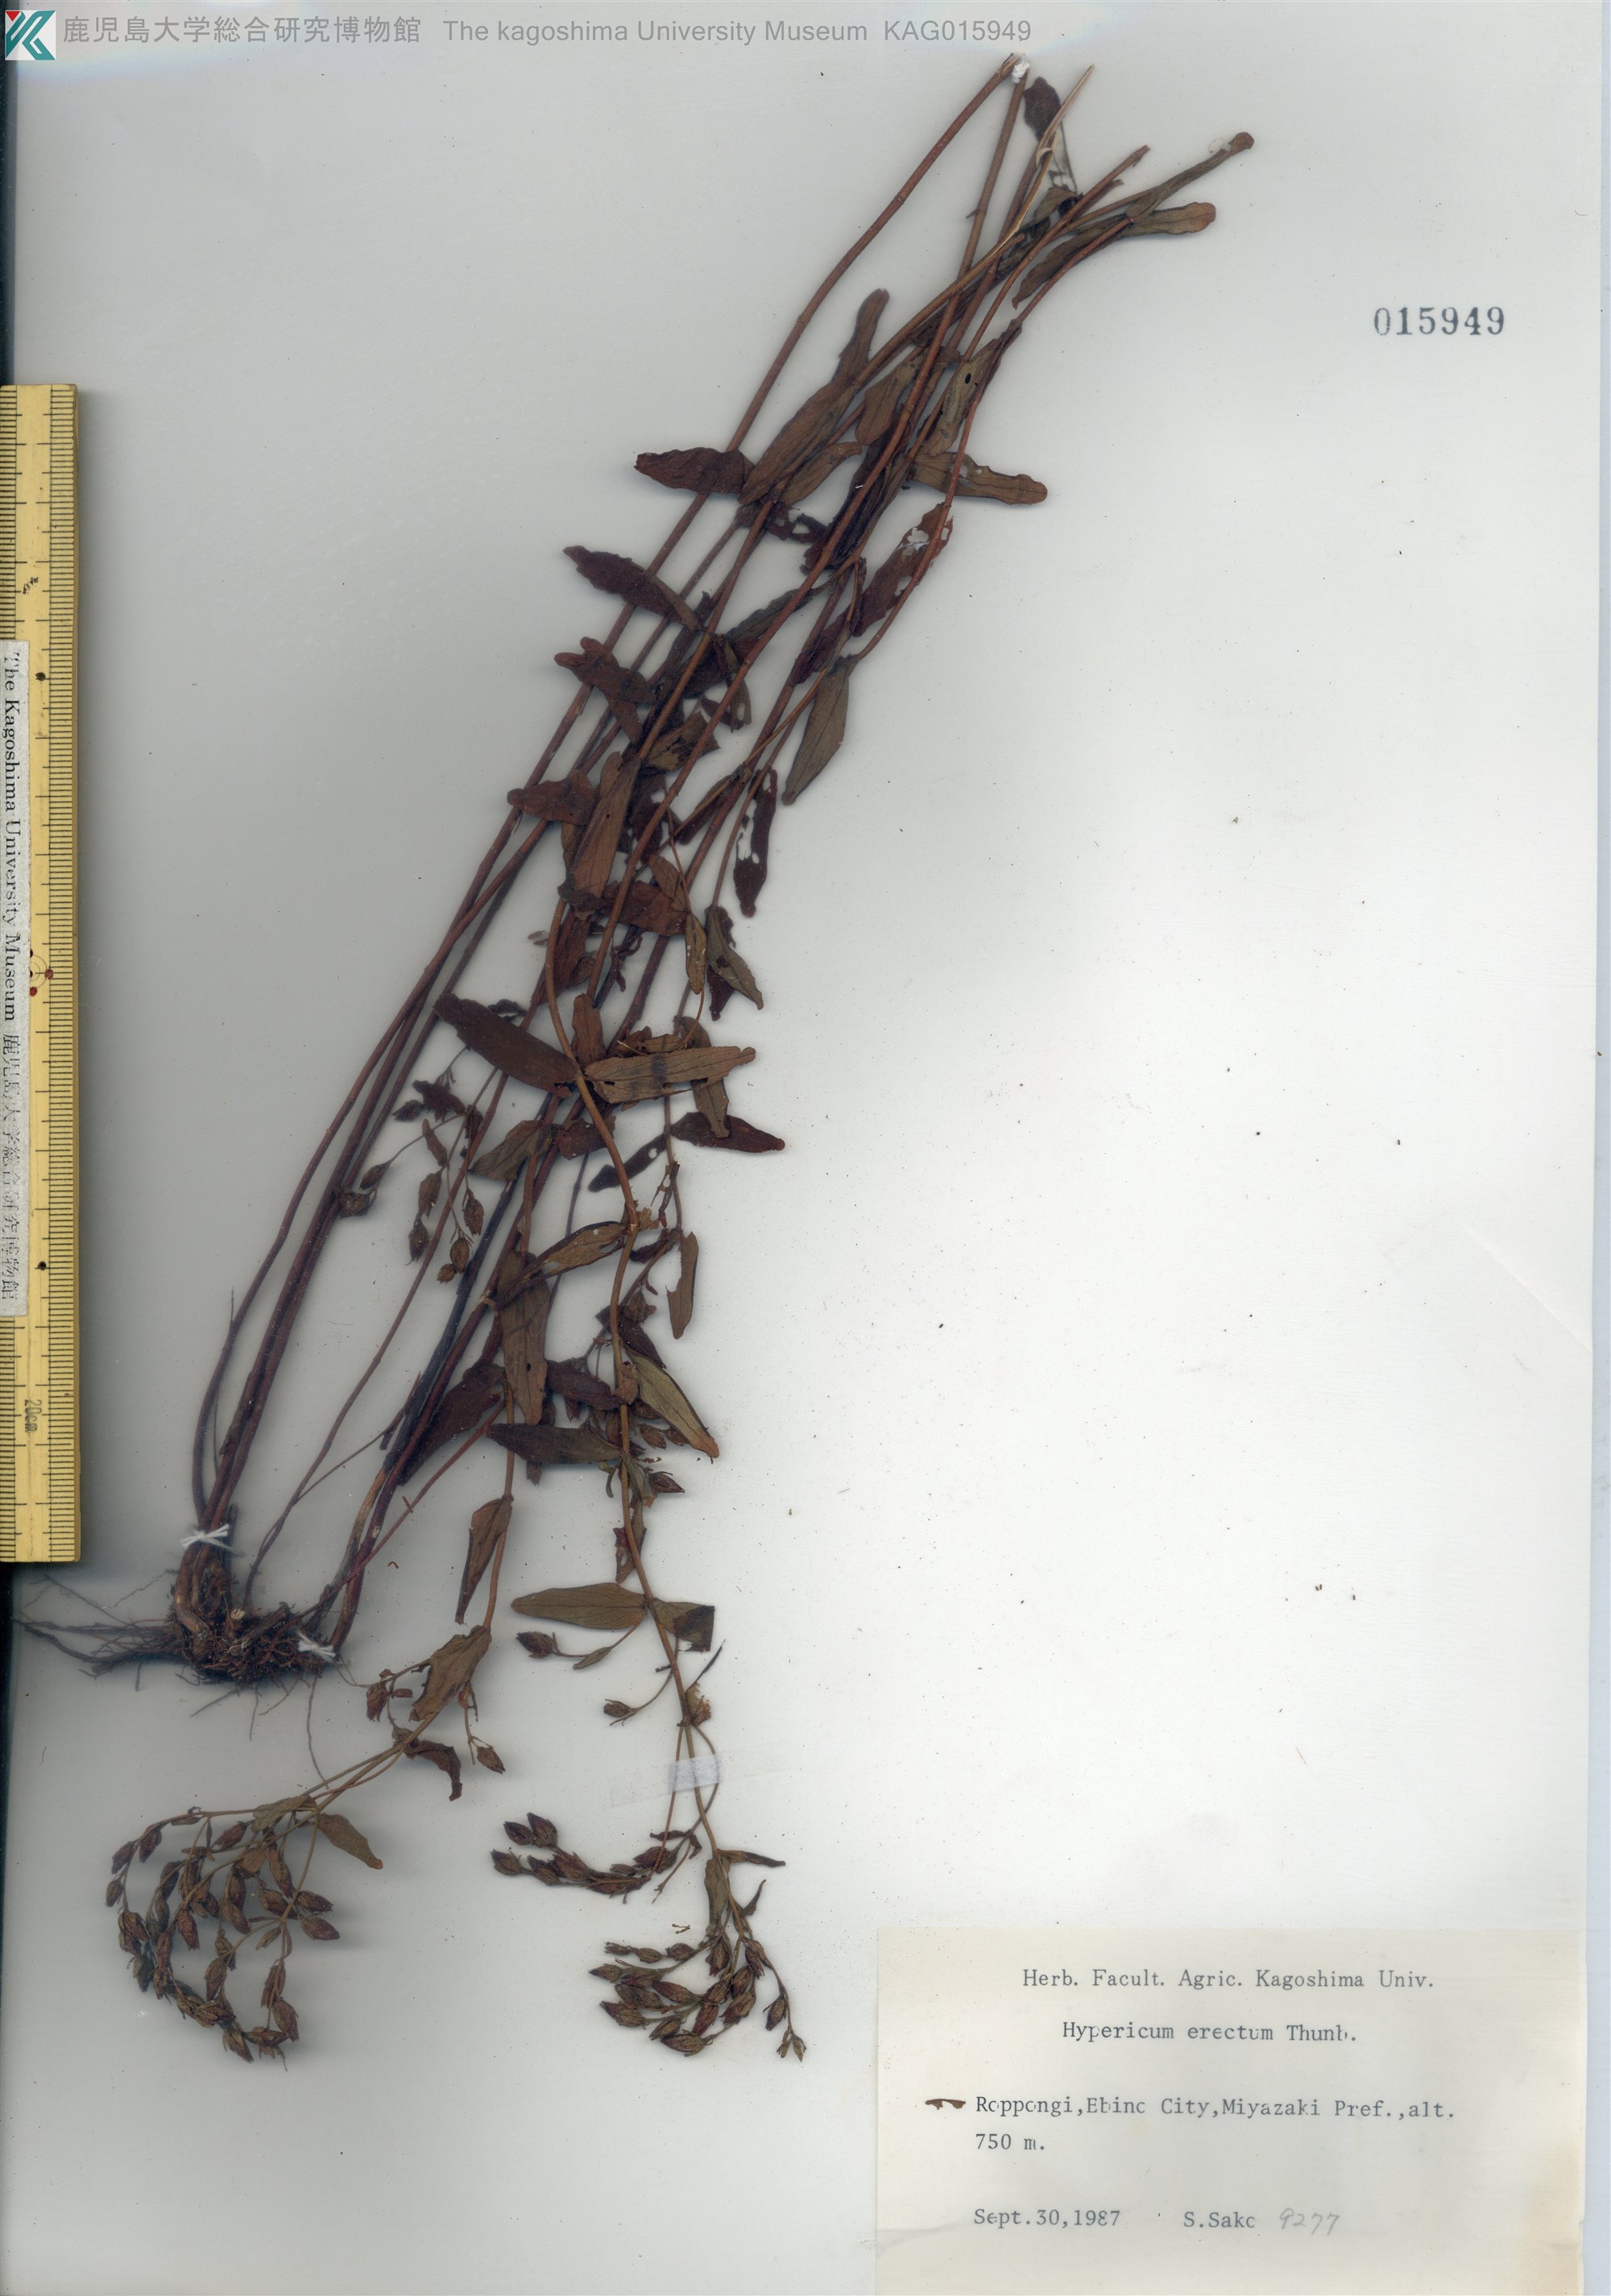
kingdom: Plantae
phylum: Tracheophyta
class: Magnoliopsida
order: Malpighiales
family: Hypericaceae
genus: Hypericum
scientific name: Hypericum erectum
